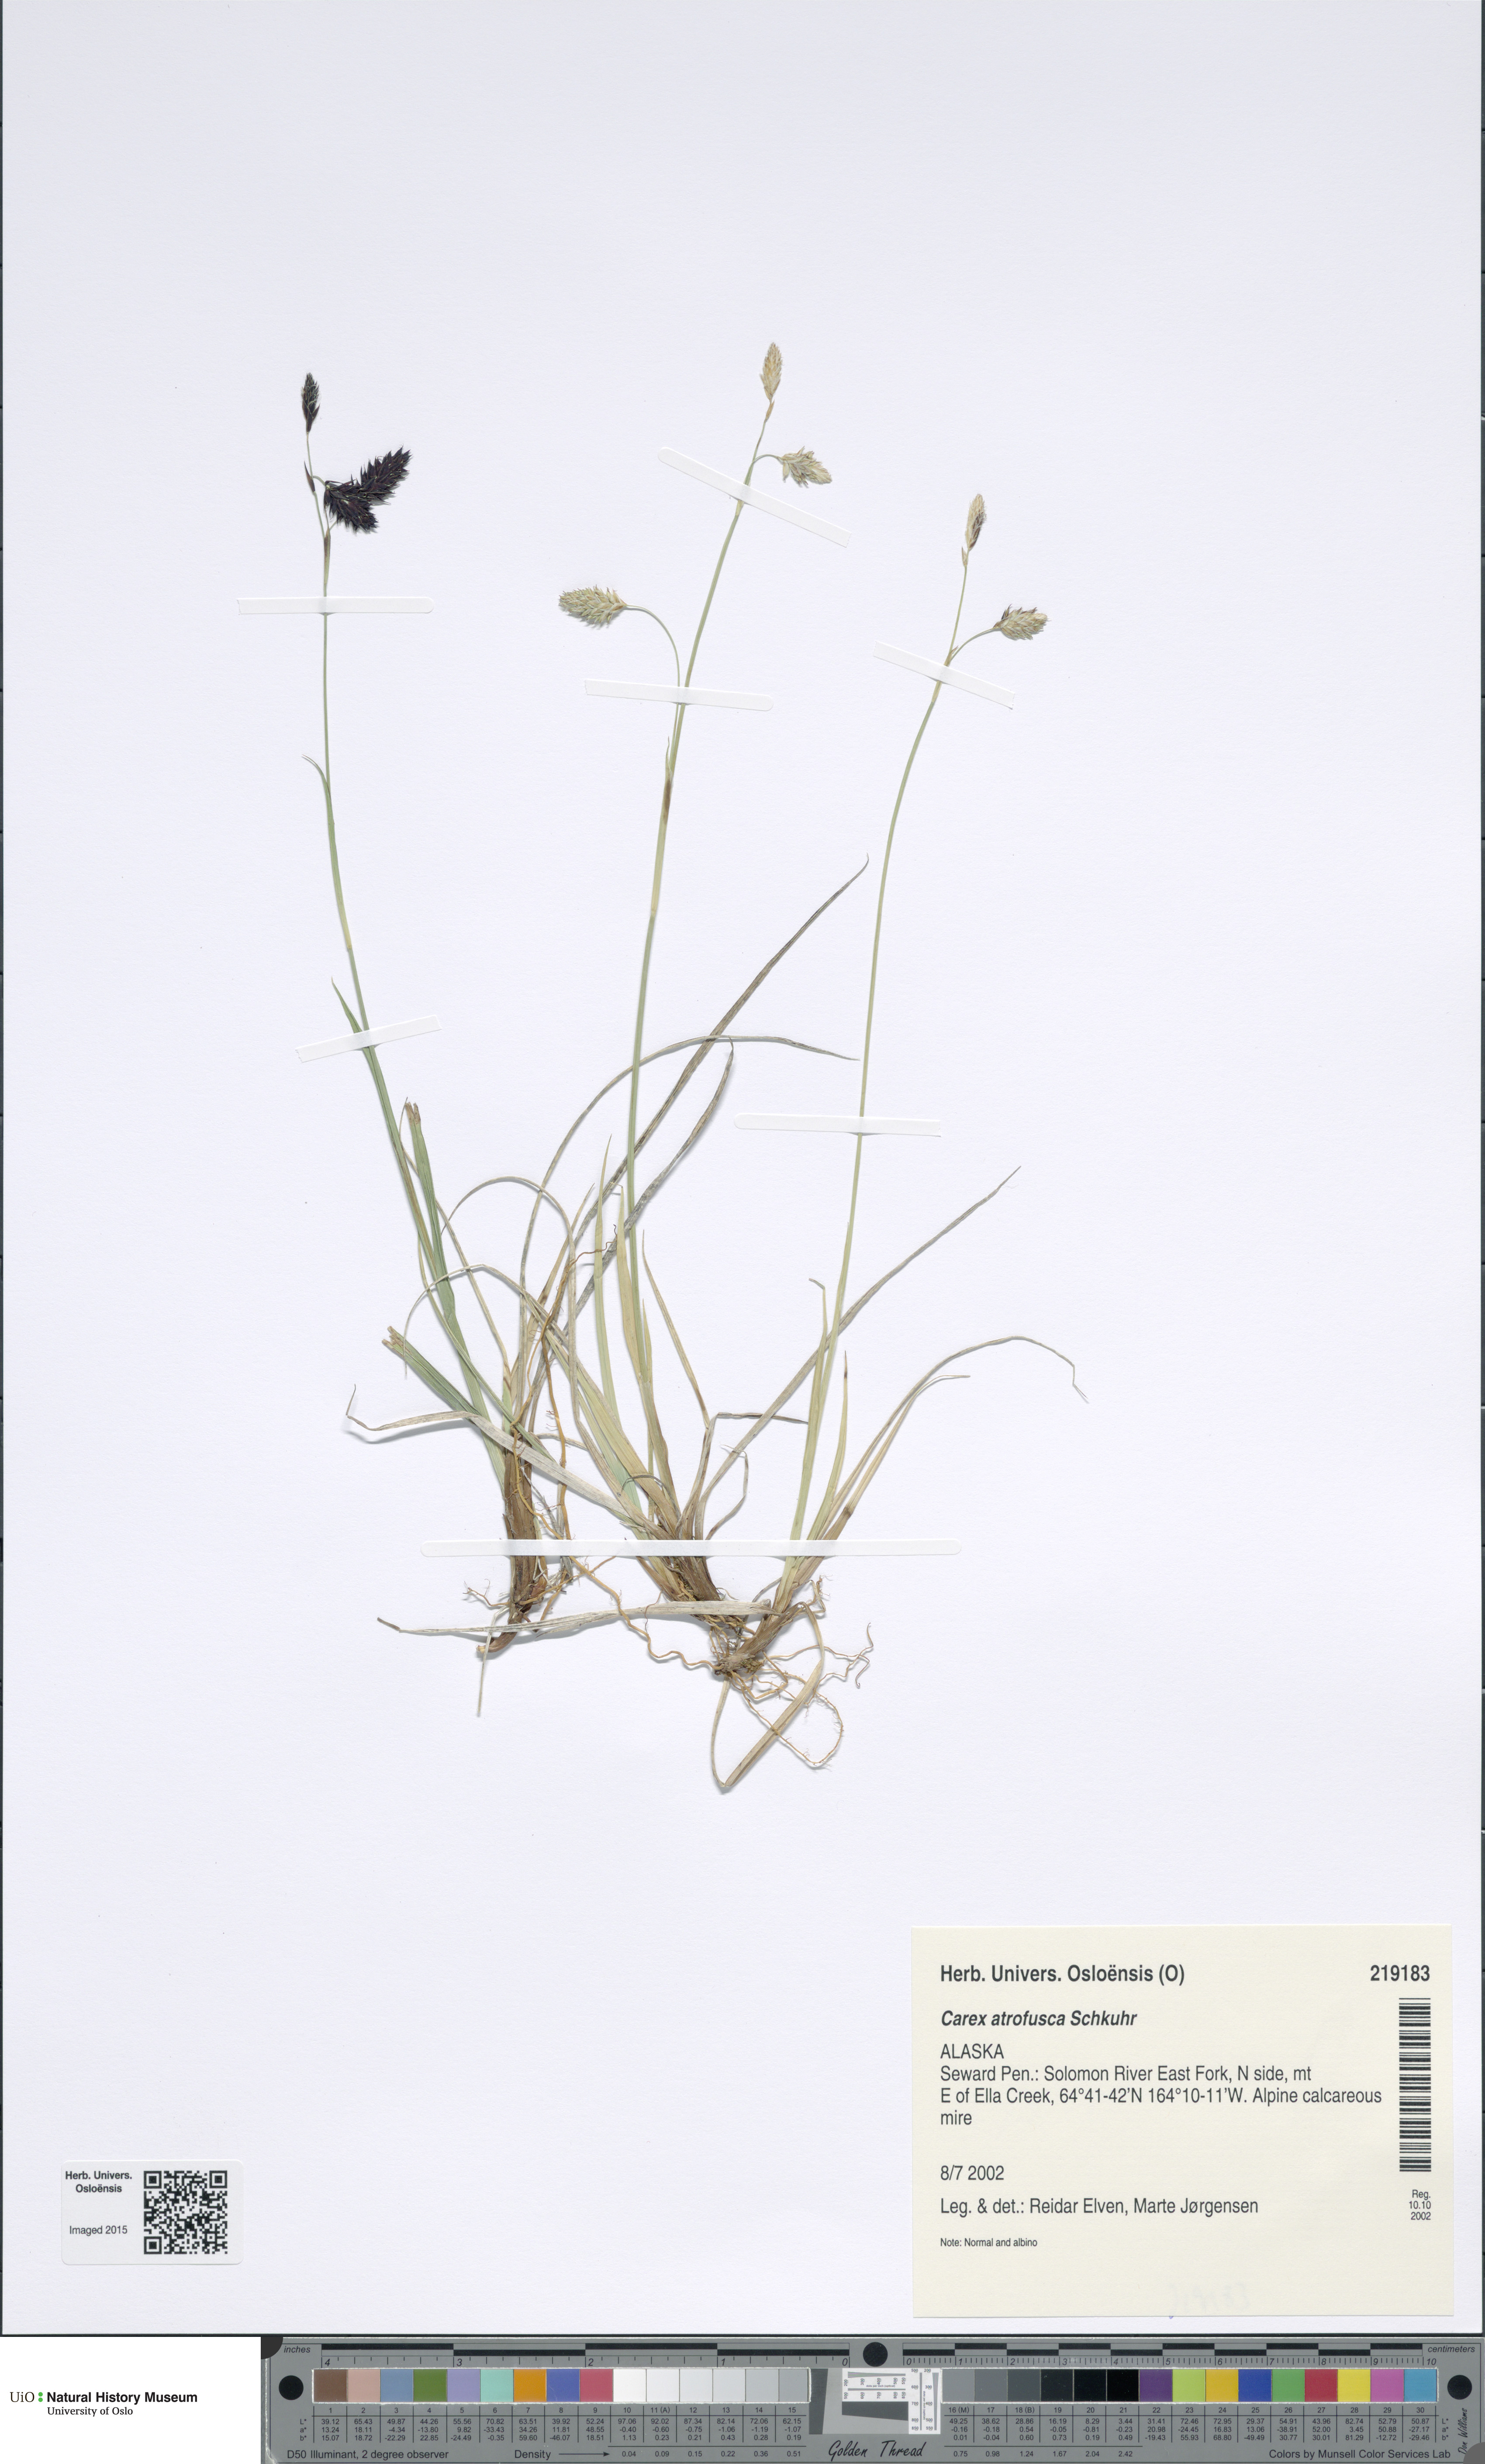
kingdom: Plantae
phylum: Tracheophyta
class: Liliopsida
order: Poales
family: Cyperaceae
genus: Carex
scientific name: Carex atrofusca
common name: Scorched alpine-sedge
